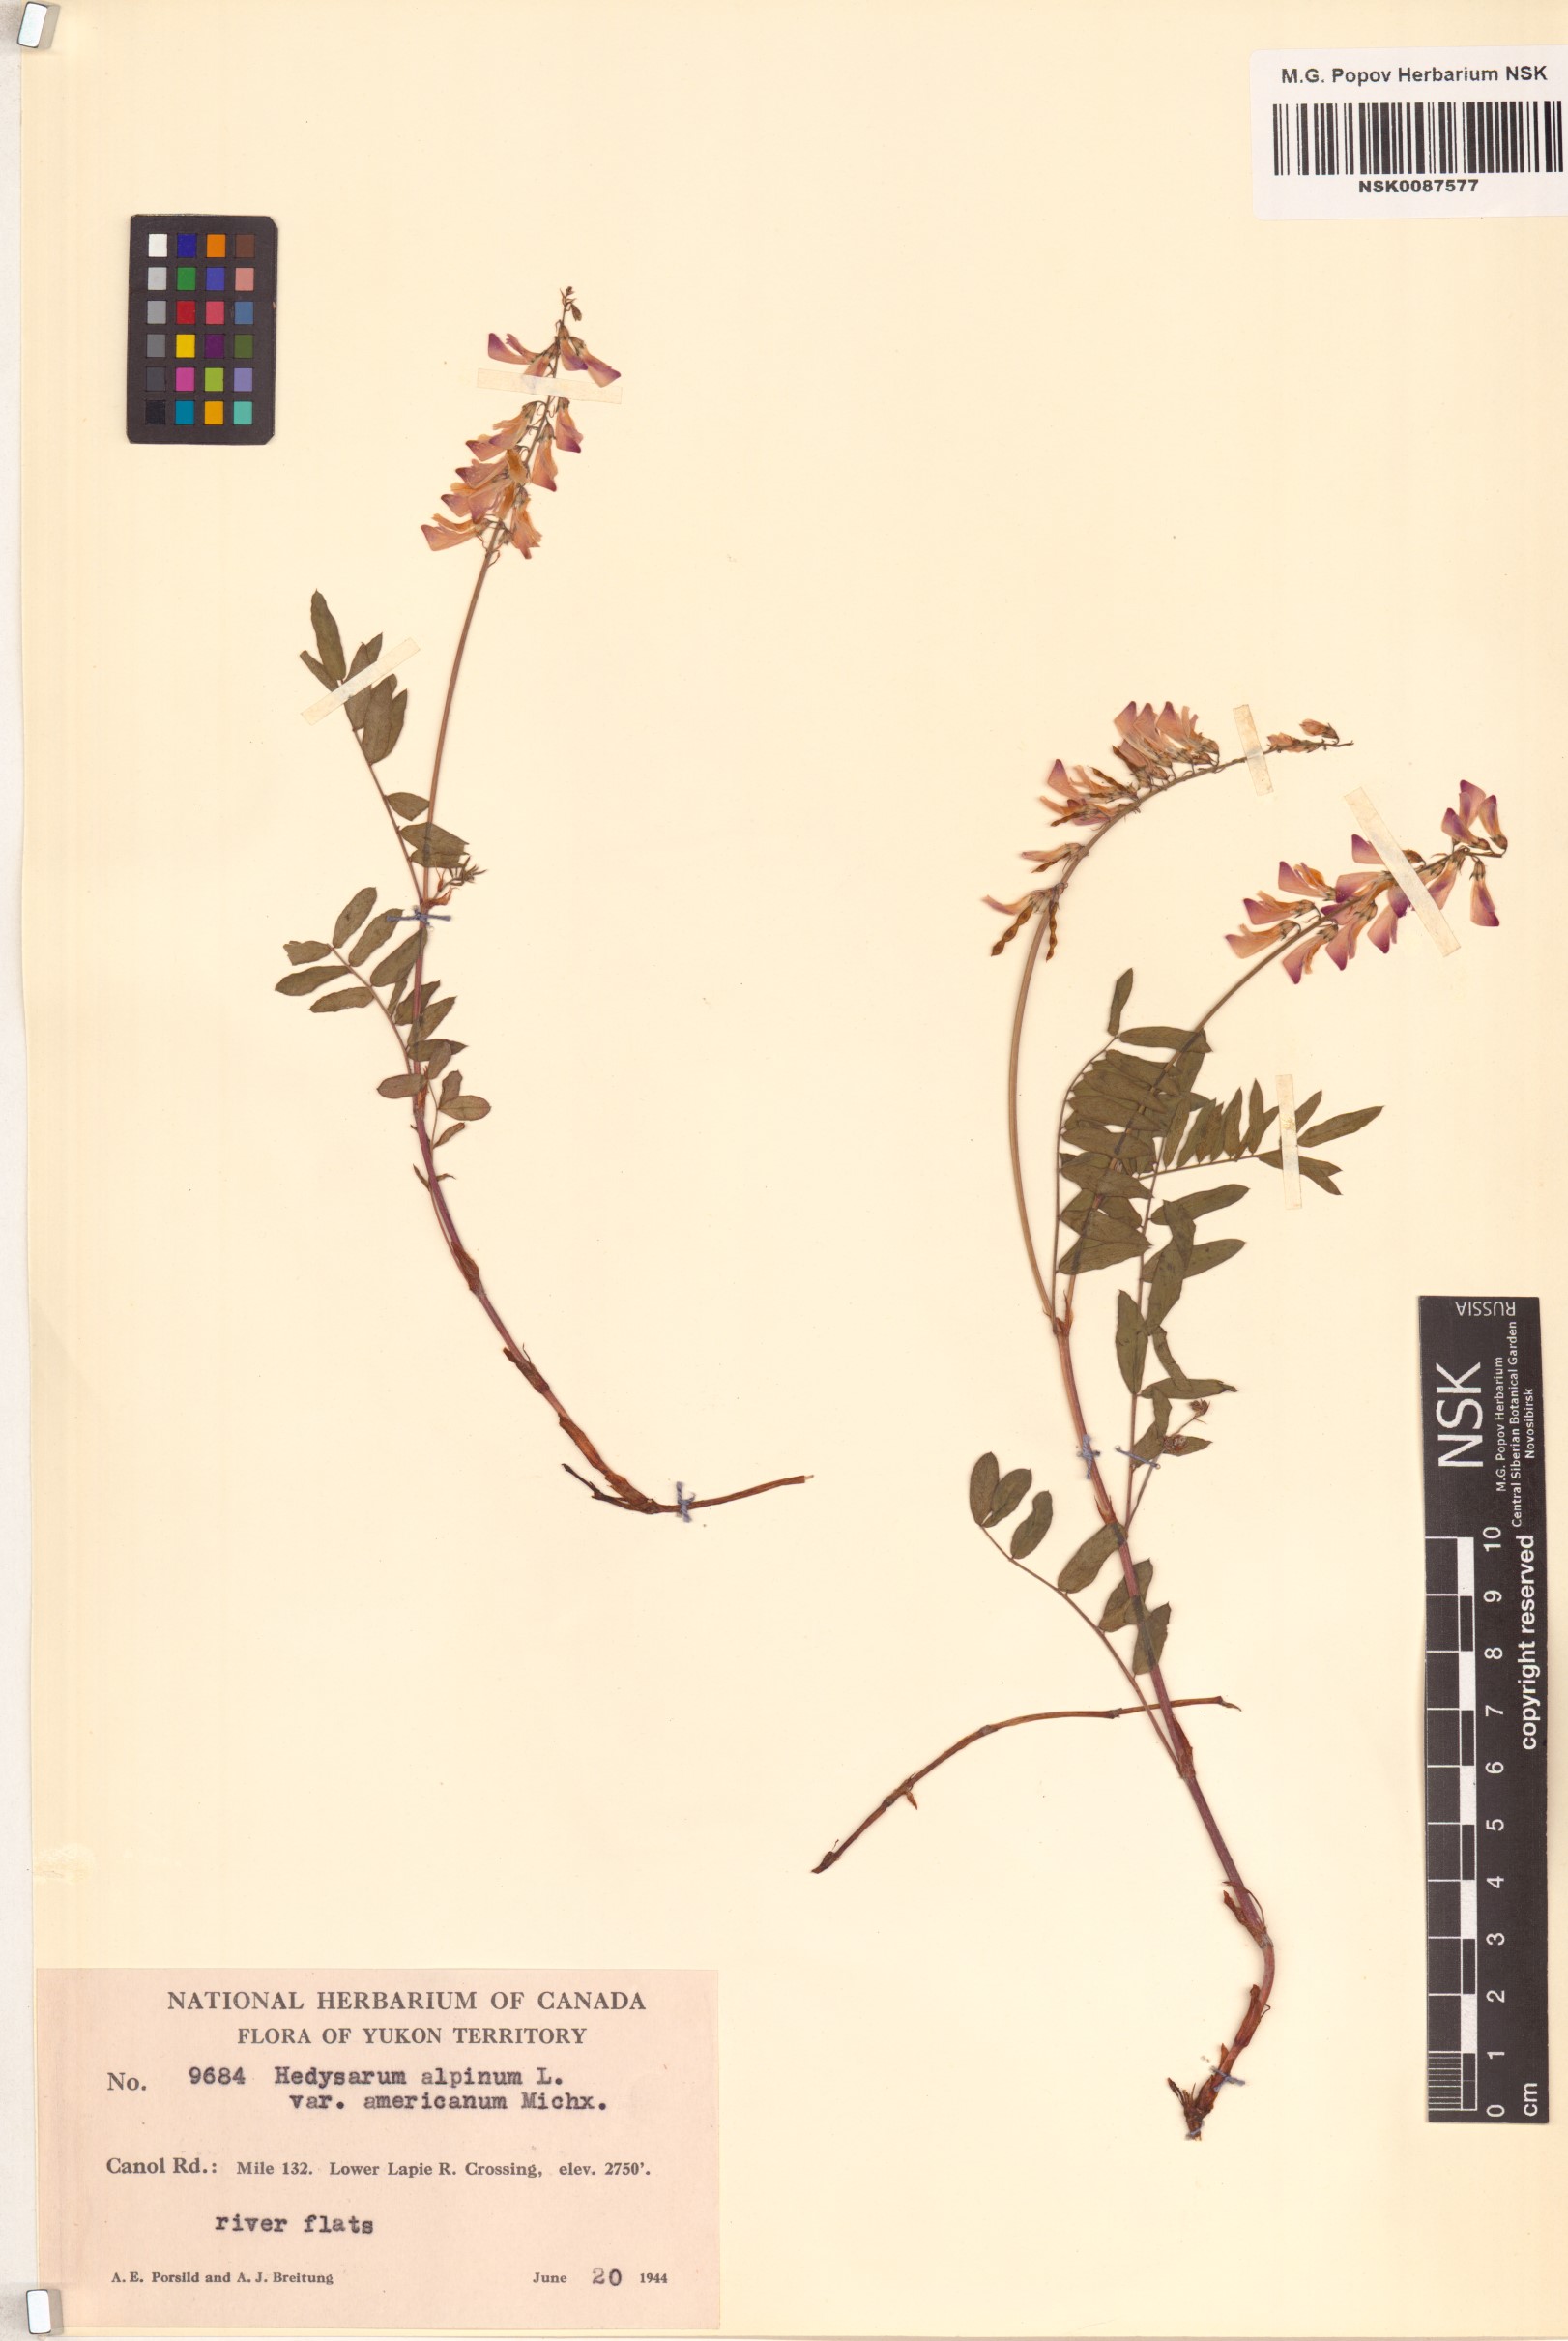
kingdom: Plantae
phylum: Tracheophyta
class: Magnoliopsida
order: Fabales
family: Fabaceae
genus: Hedysarum
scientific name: Hedysarum americanum
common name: Alpine hedysarum
